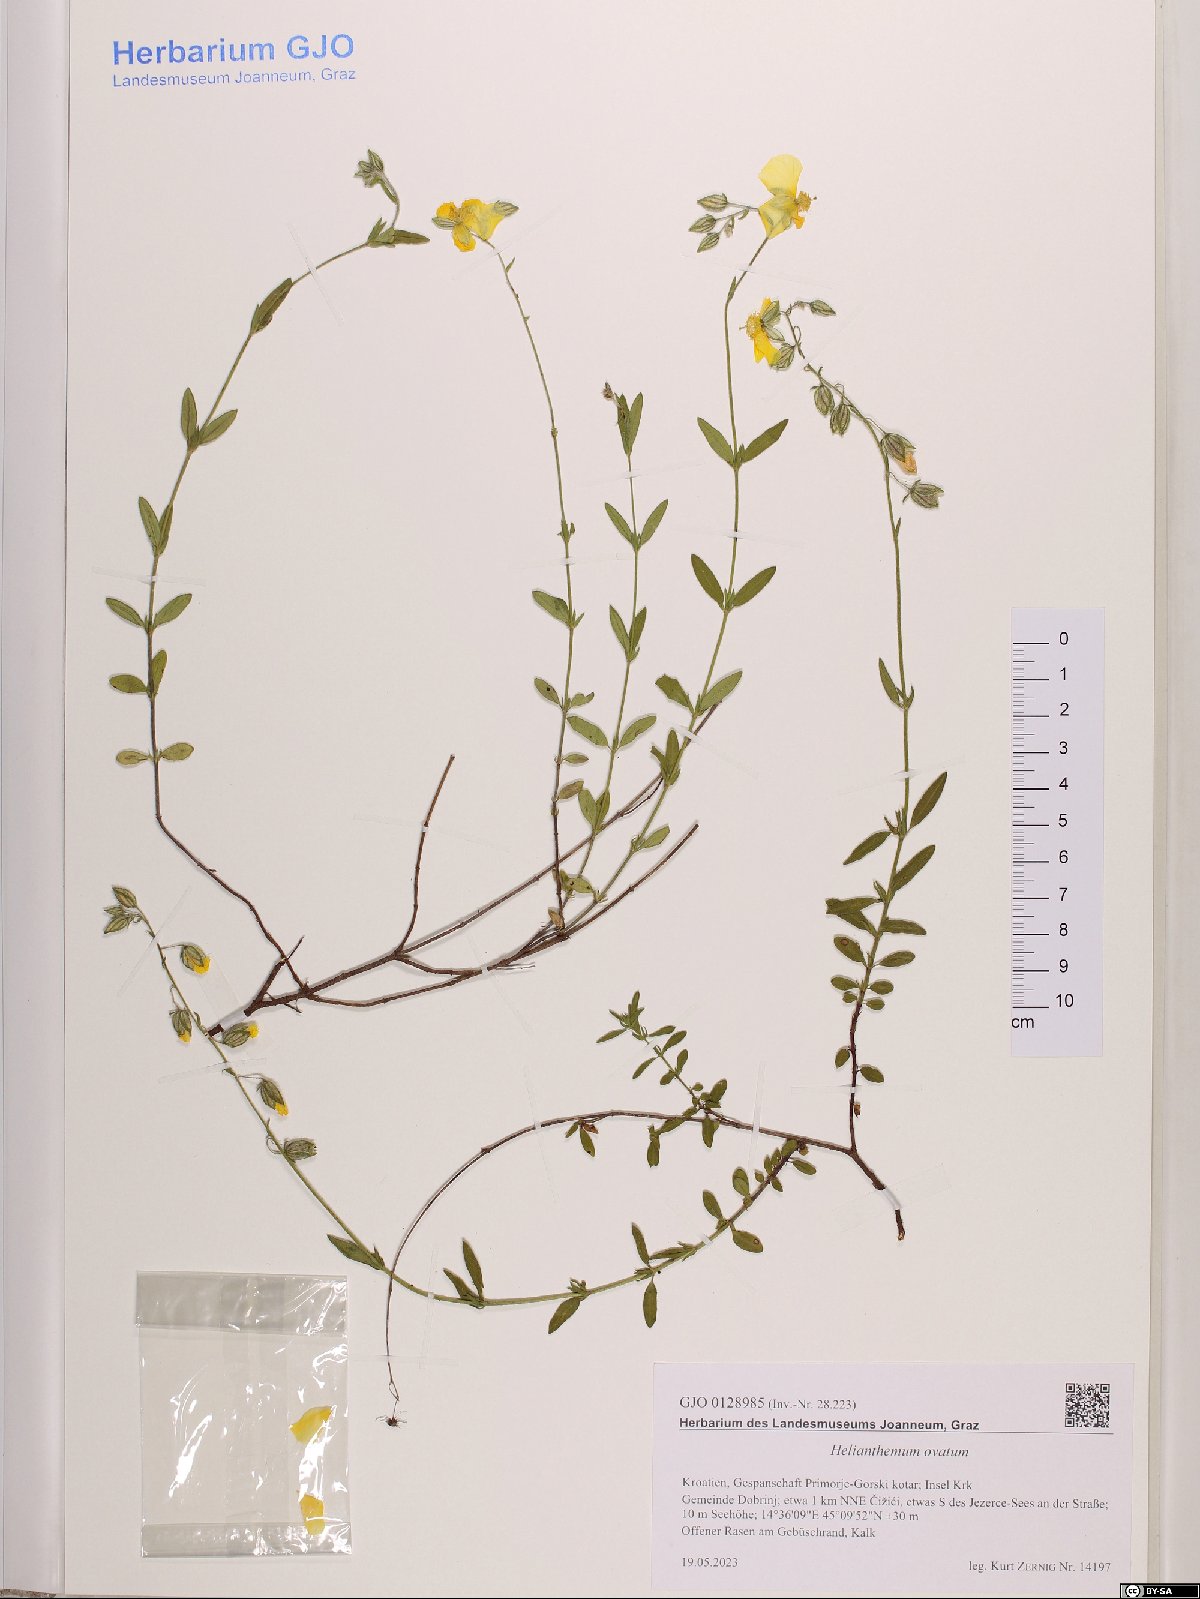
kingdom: Plantae
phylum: Tracheophyta
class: Magnoliopsida
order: Malvales
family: Cistaceae
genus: Helianthemum
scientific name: Helianthemum nummularium
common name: Common rock-rose
